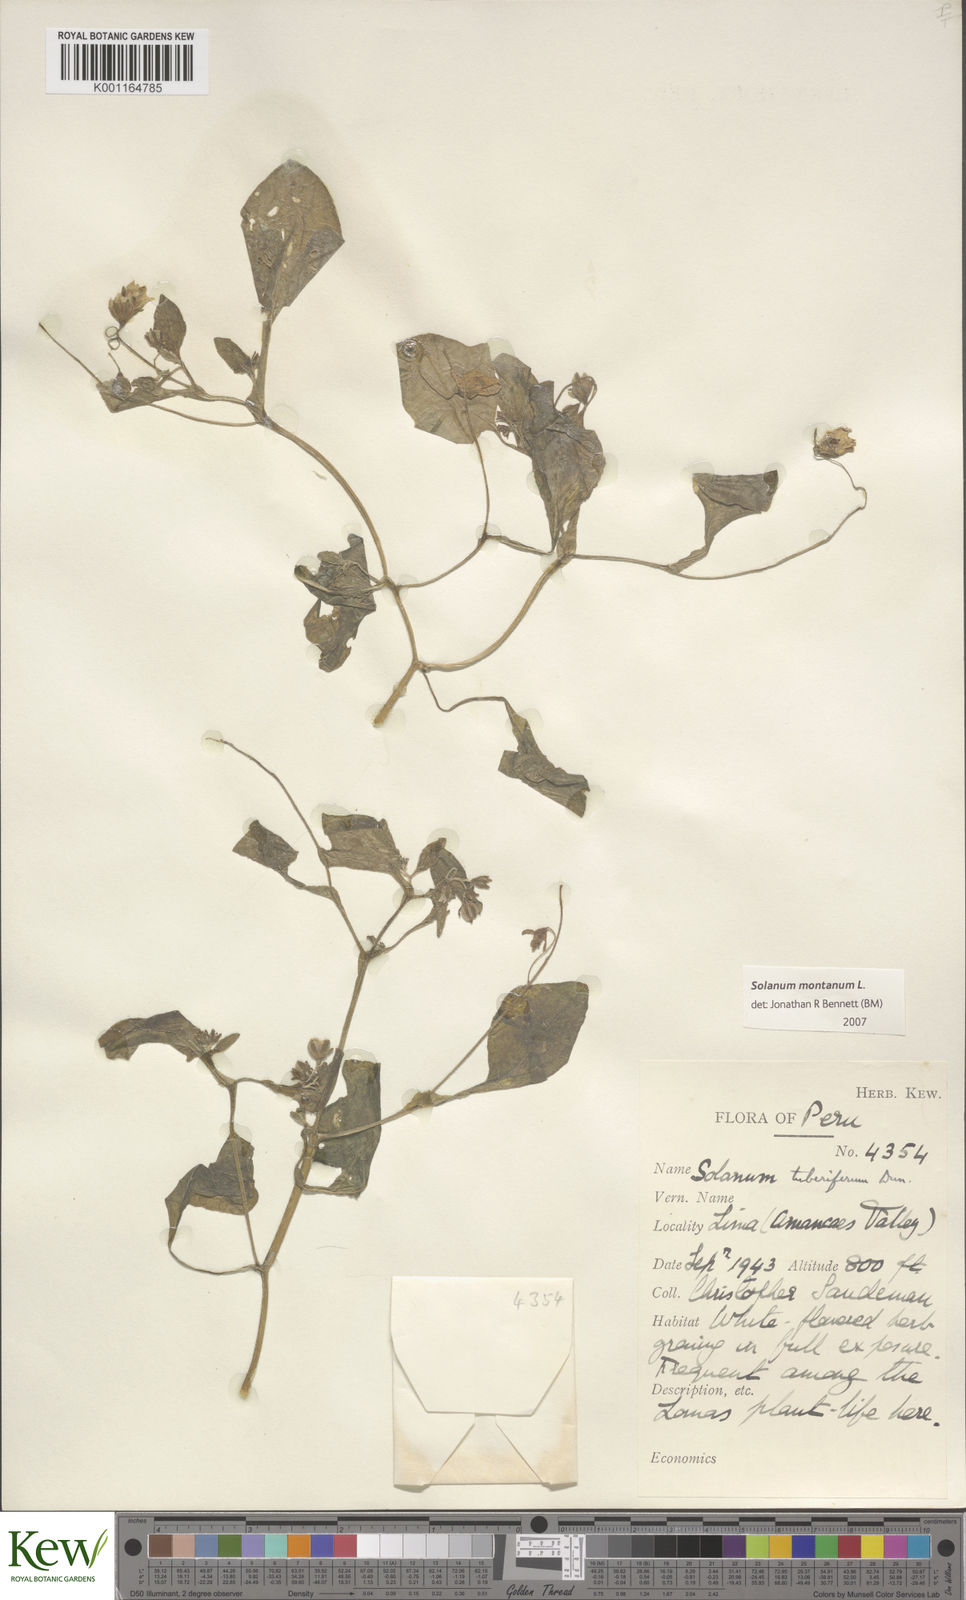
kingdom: Plantae
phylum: Tracheophyta
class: Magnoliopsida
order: Solanales
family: Solanaceae
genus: Solanum
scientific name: Solanum montanum
